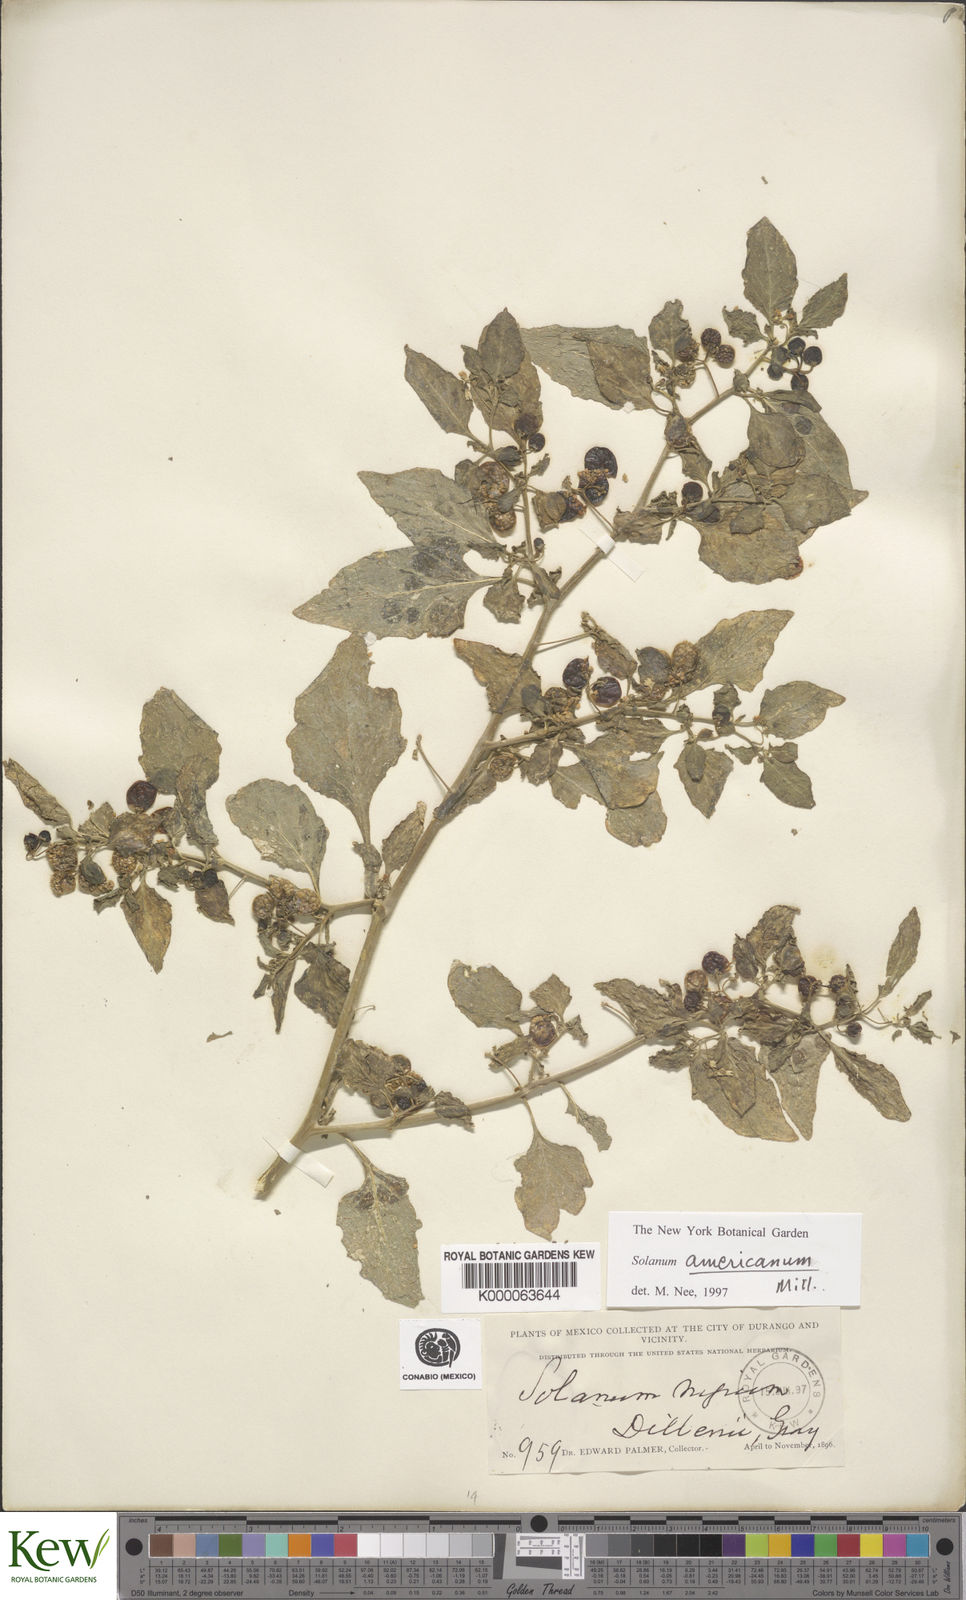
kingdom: Plantae
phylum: Tracheophyta
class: Magnoliopsida
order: Solanales
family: Solanaceae
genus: Solanum
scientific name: Solanum americanum
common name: American black nightshade
